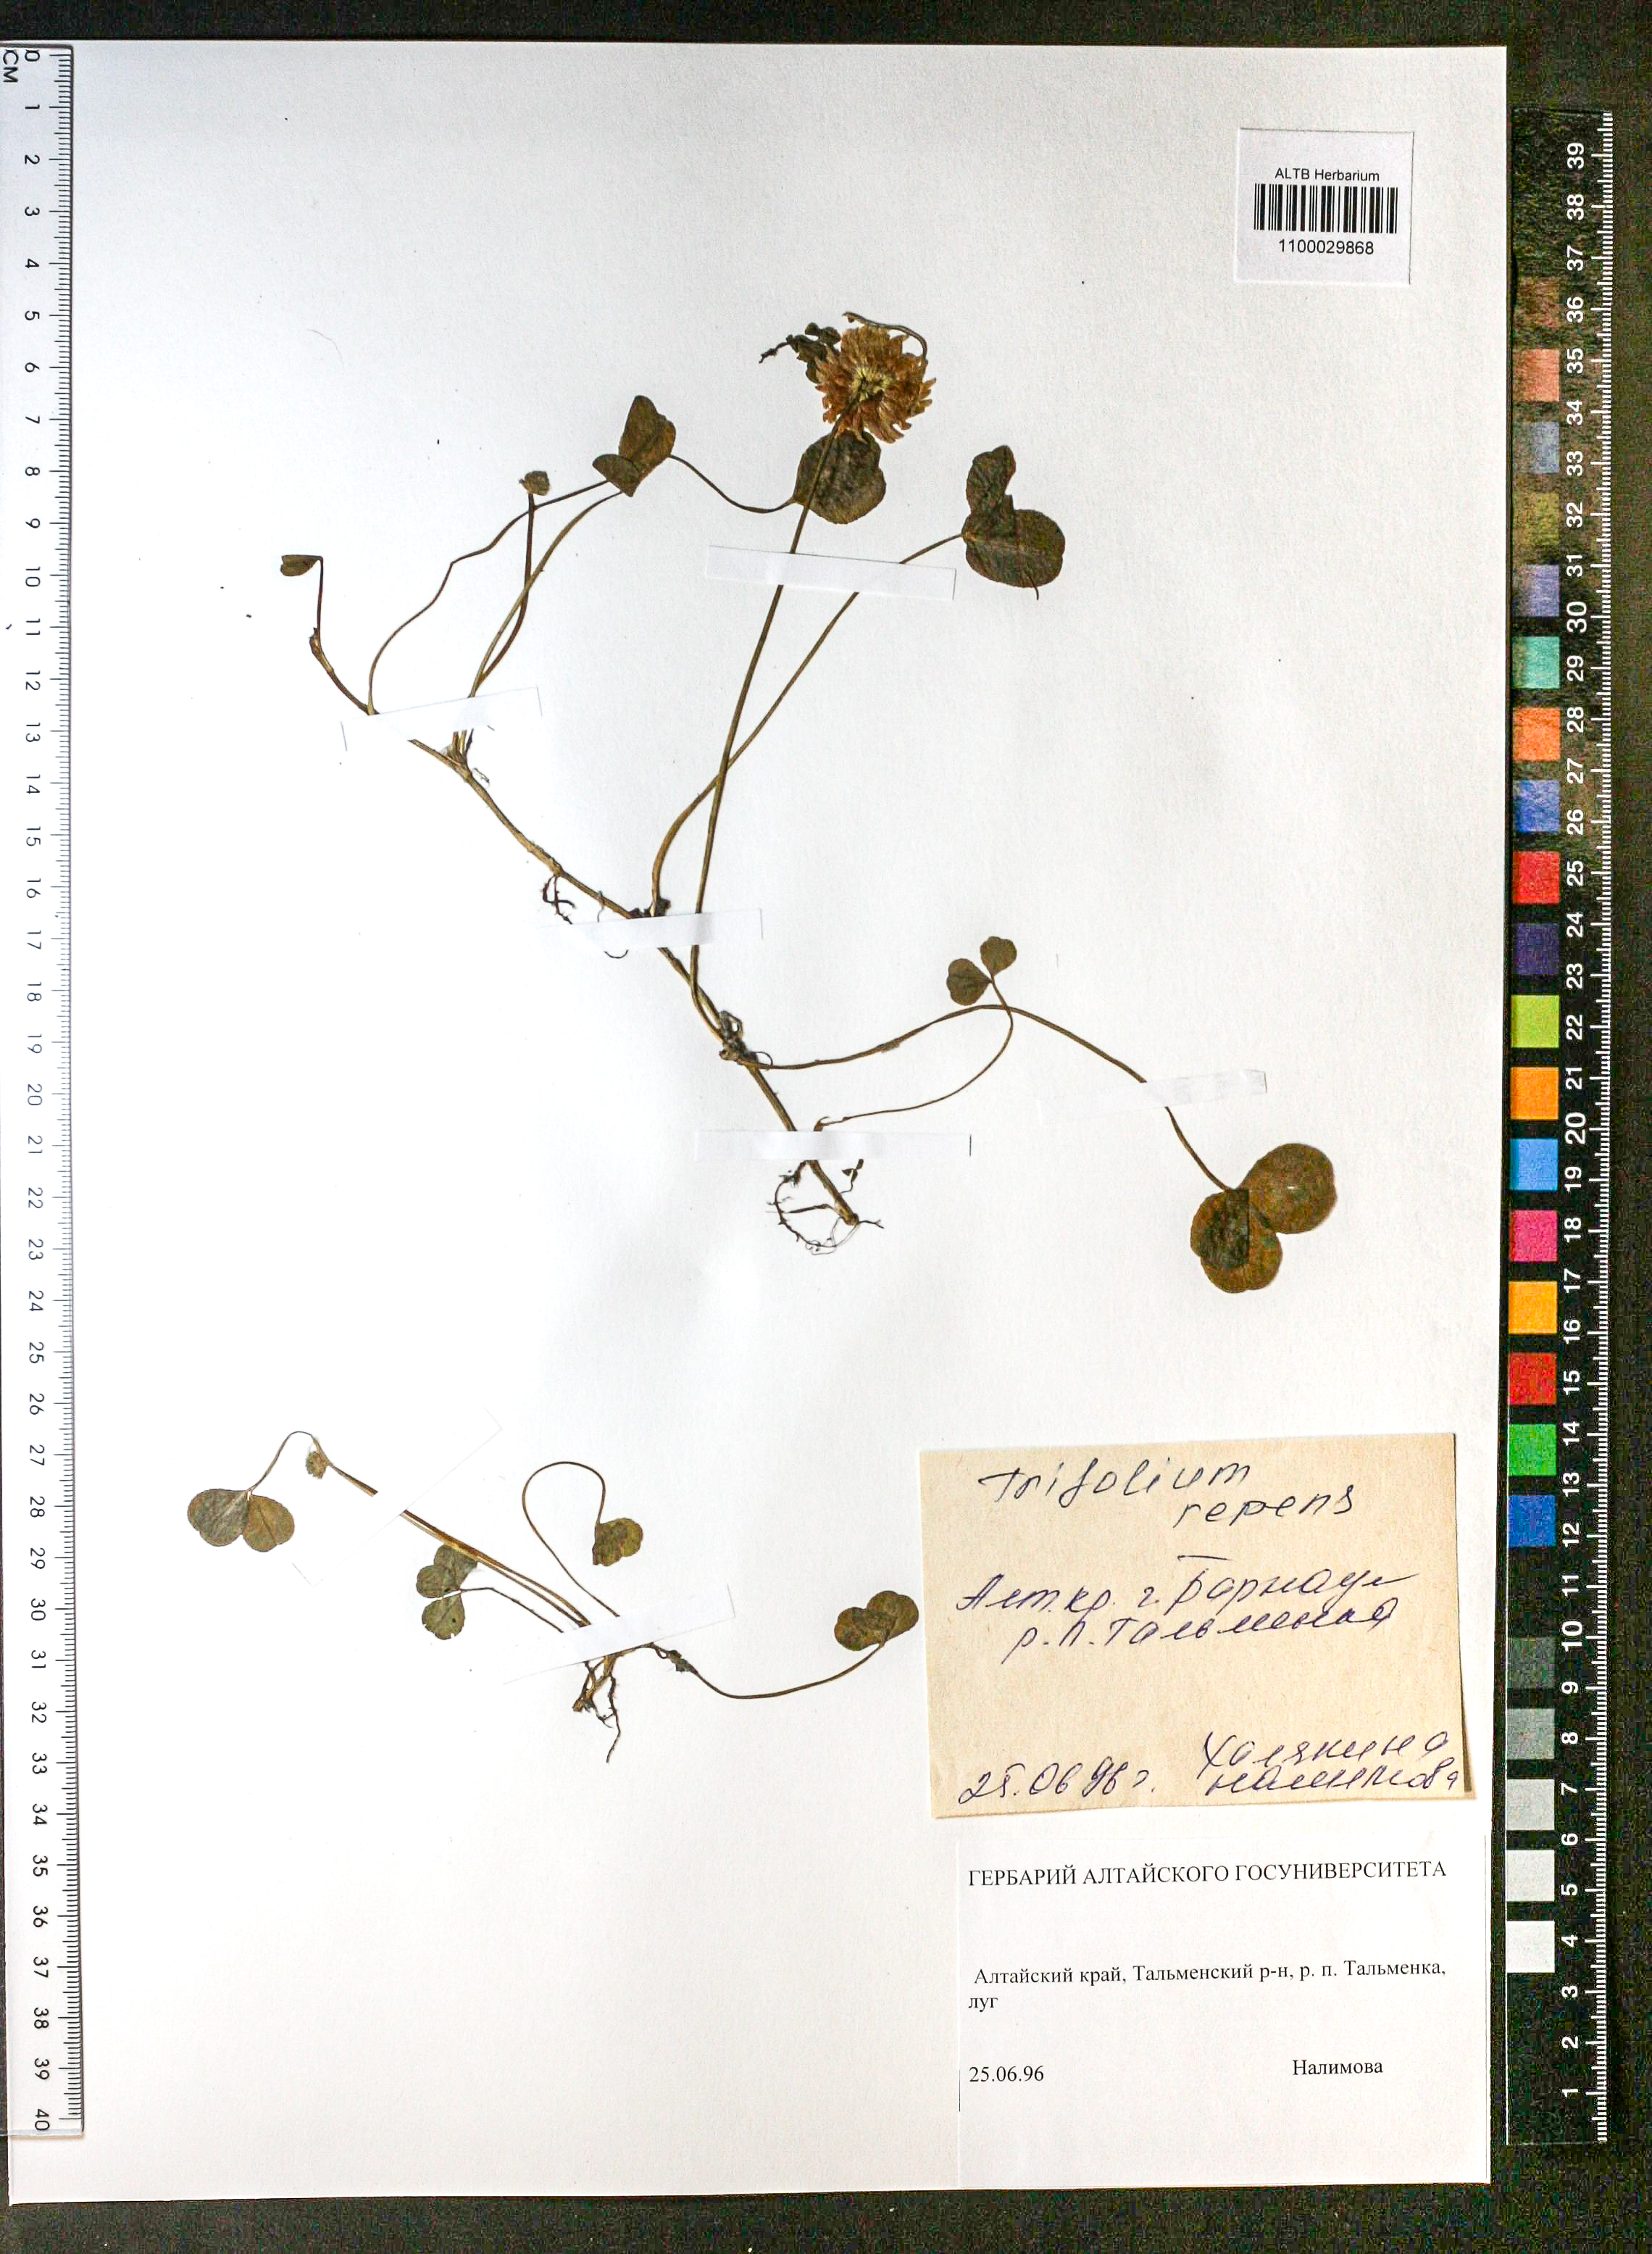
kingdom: Plantae
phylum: Tracheophyta
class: Magnoliopsida
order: Fabales
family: Fabaceae
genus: Trifolium
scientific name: Trifolium repens
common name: White clover
